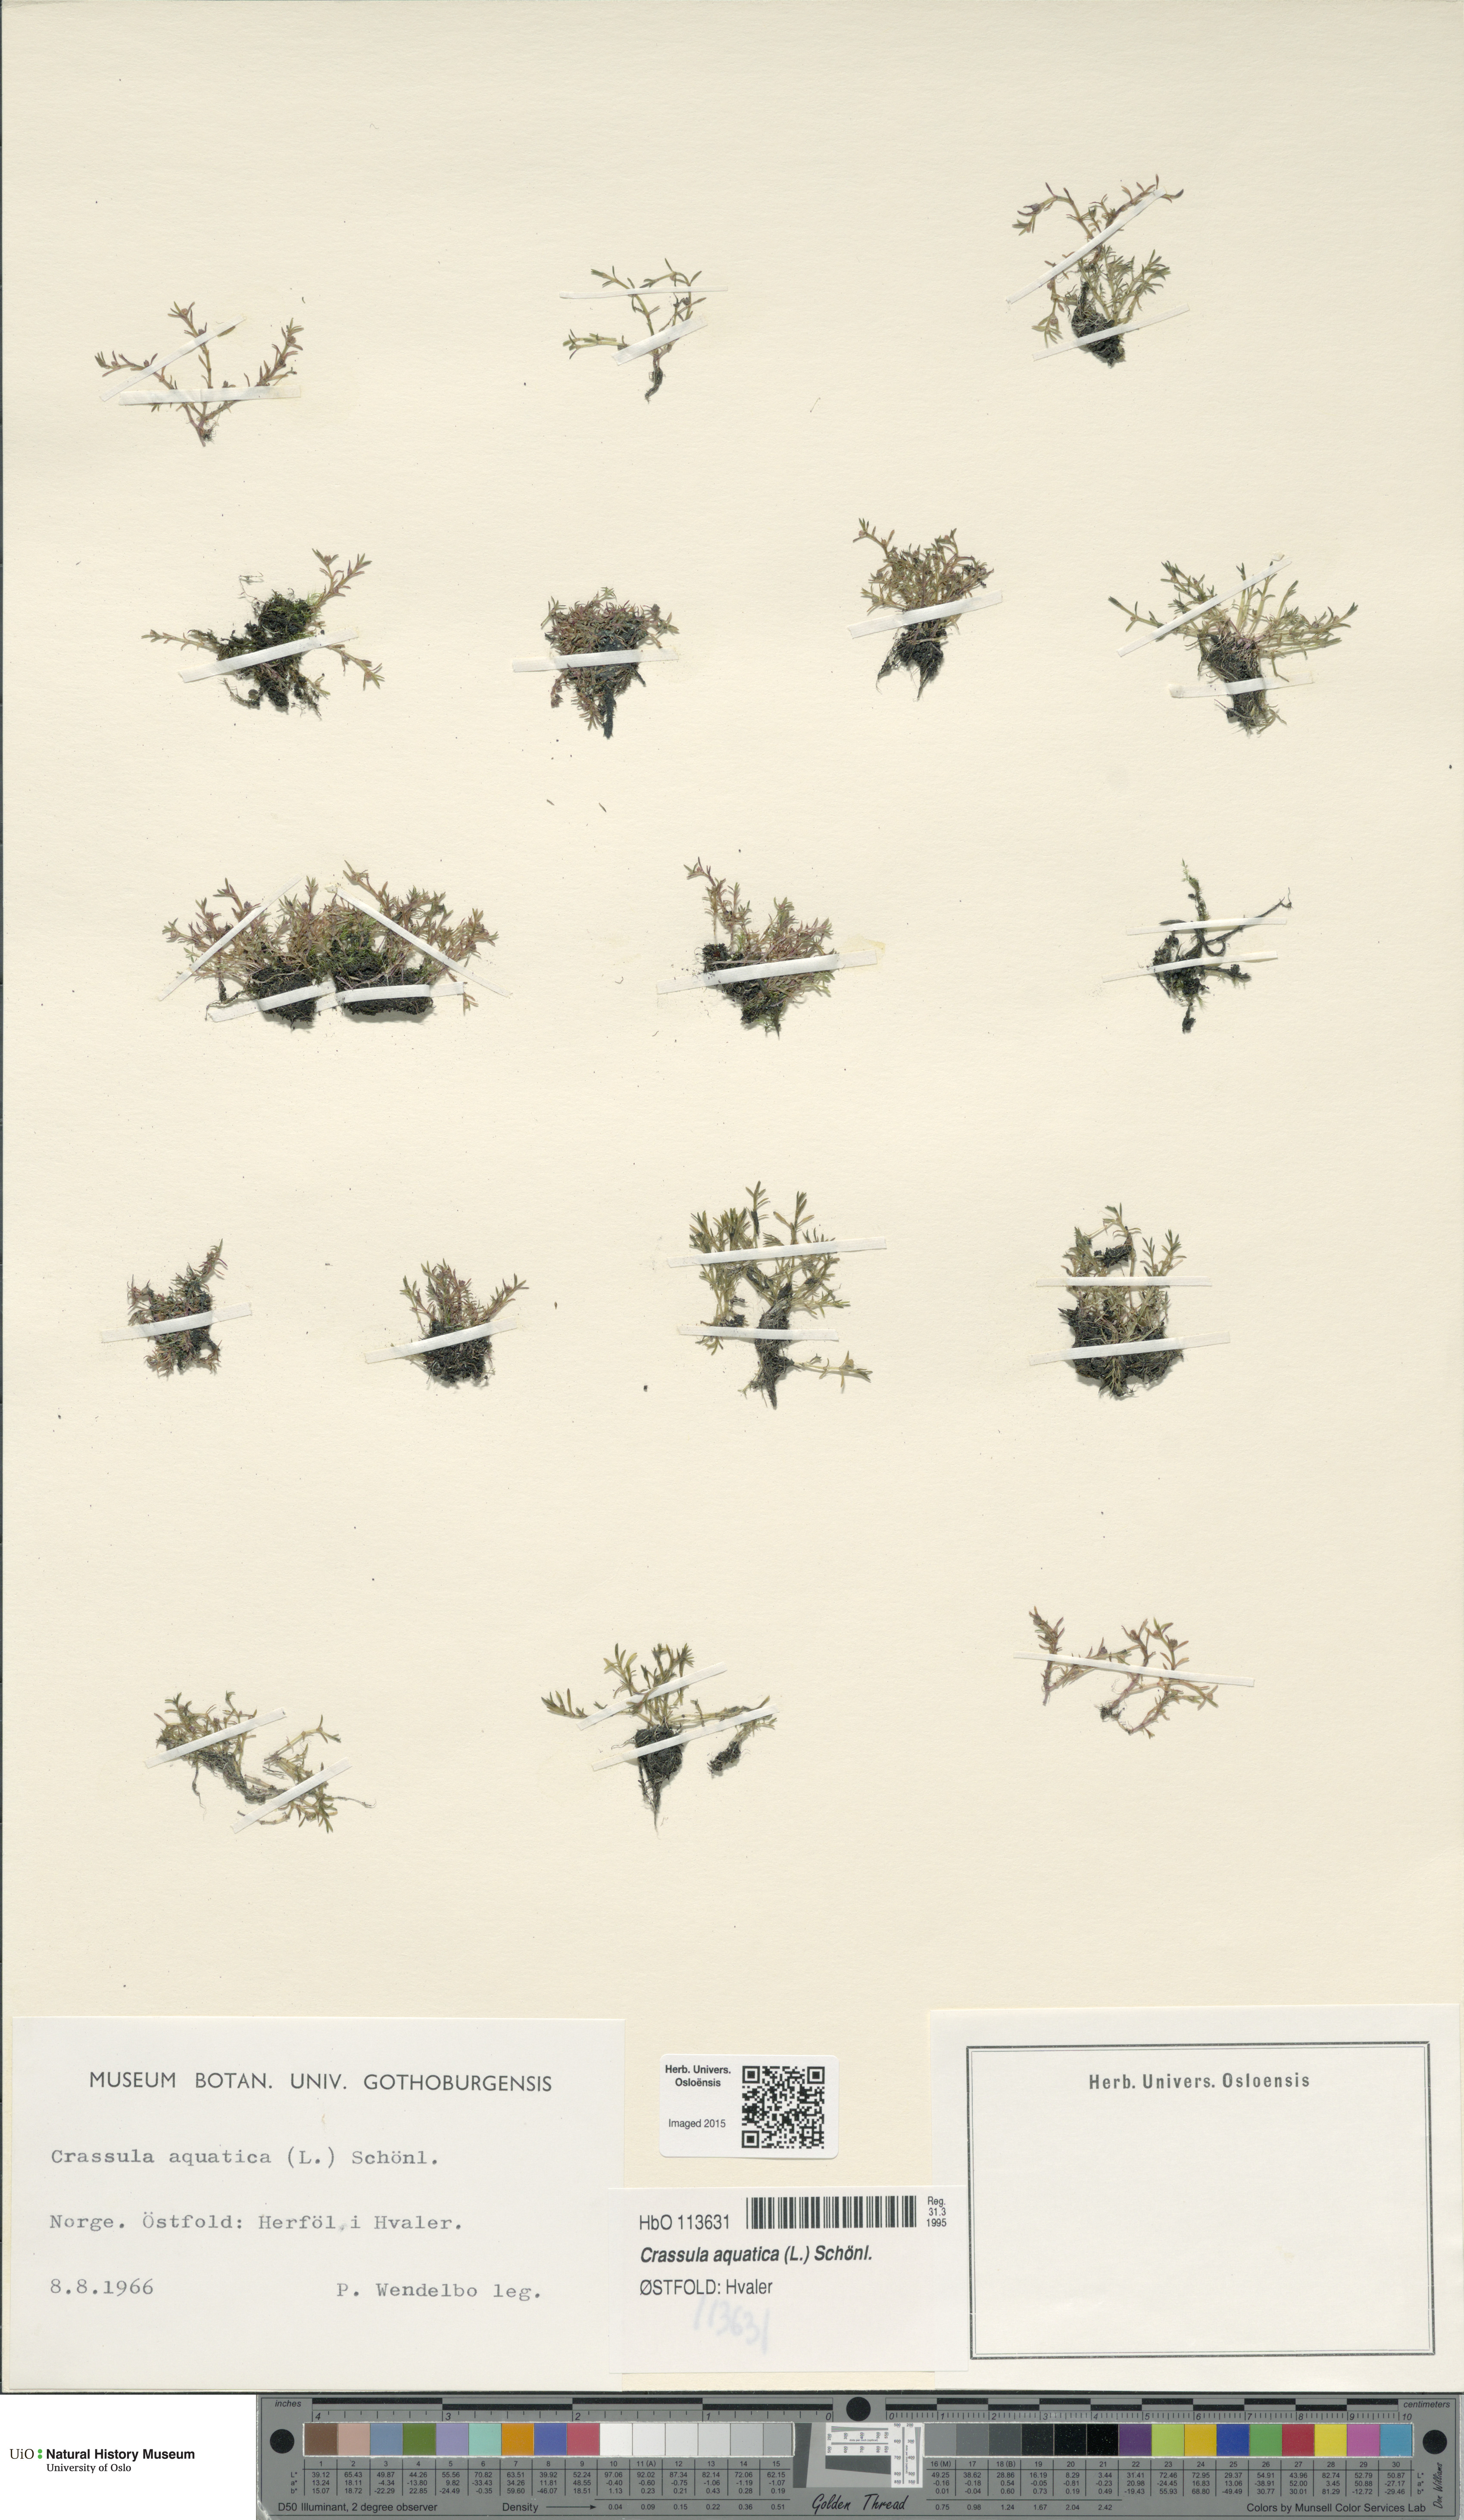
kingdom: Plantae
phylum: Tracheophyta
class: Magnoliopsida
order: Saxifragales
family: Crassulaceae
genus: Crassula
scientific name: Crassula aquatica
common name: Pigmyweed
